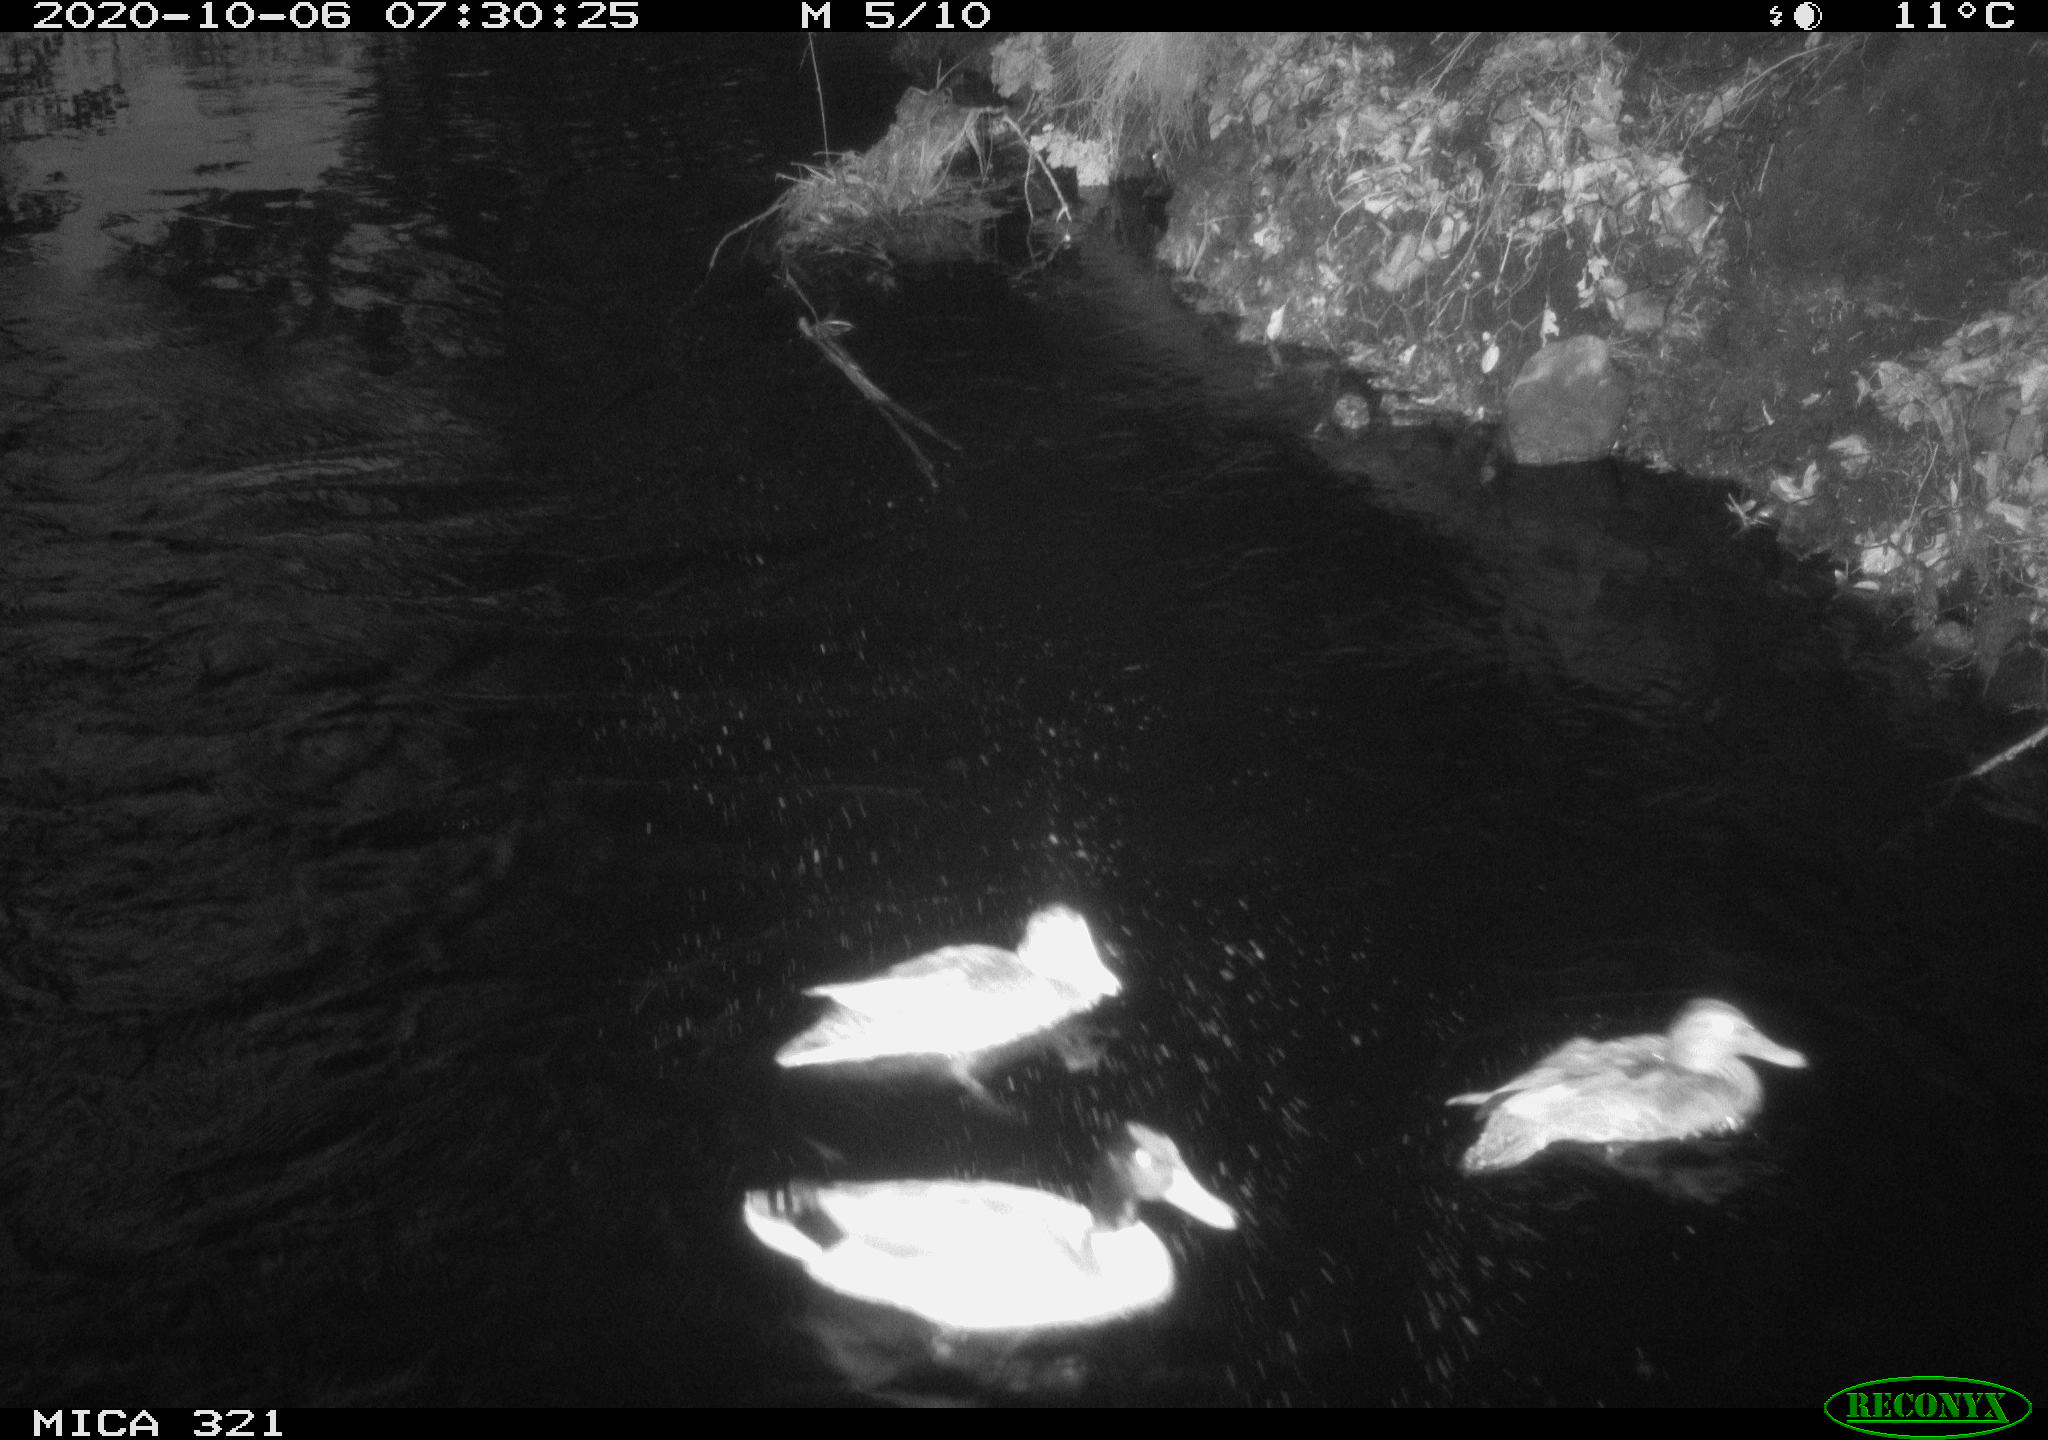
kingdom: Animalia
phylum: Chordata
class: Aves
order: Anseriformes
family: Anatidae
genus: Anas
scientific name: Anas platyrhynchos
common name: Mallard
